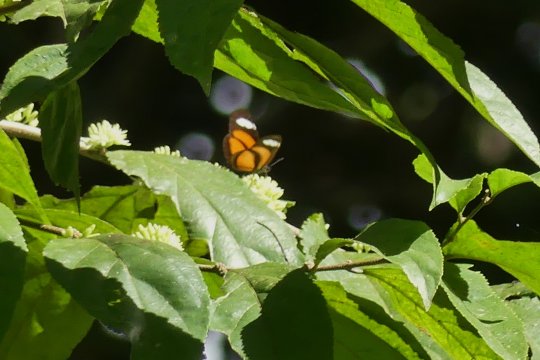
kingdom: Animalia
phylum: Arthropoda
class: Insecta
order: Lepidoptera
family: Nymphalidae
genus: Eueides
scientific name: Eueides lybia
